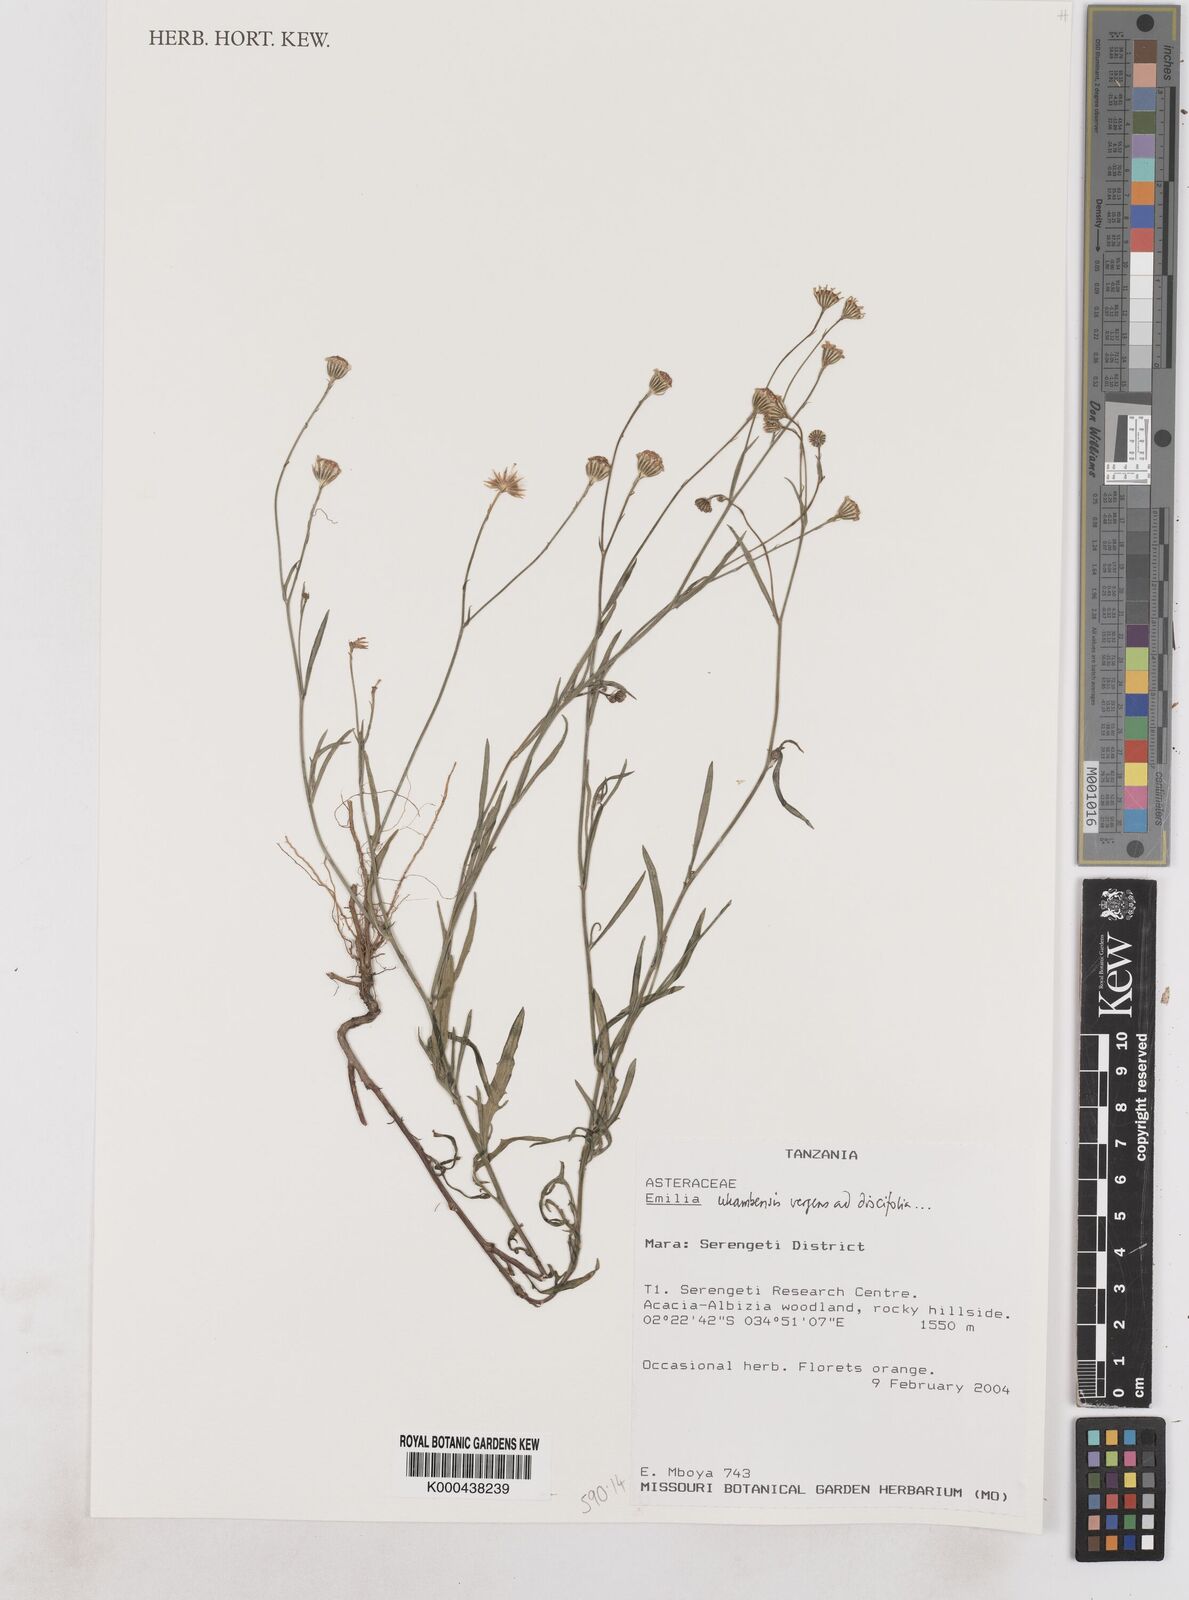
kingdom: Plantae
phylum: Tracheophyta
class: Magnoliopsida
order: Asterales
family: Asteraceae
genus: Emilia
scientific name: Emilia ukambensis
